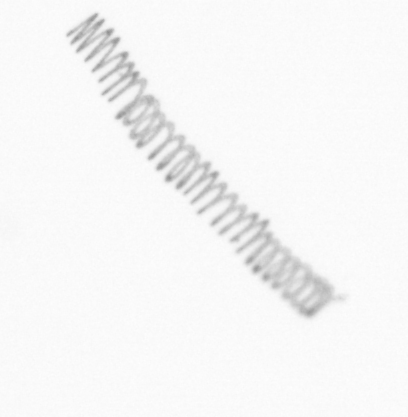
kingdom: Chromista
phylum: Ochrophyta
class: Bacillariophyceae
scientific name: Bacillariophyceae
